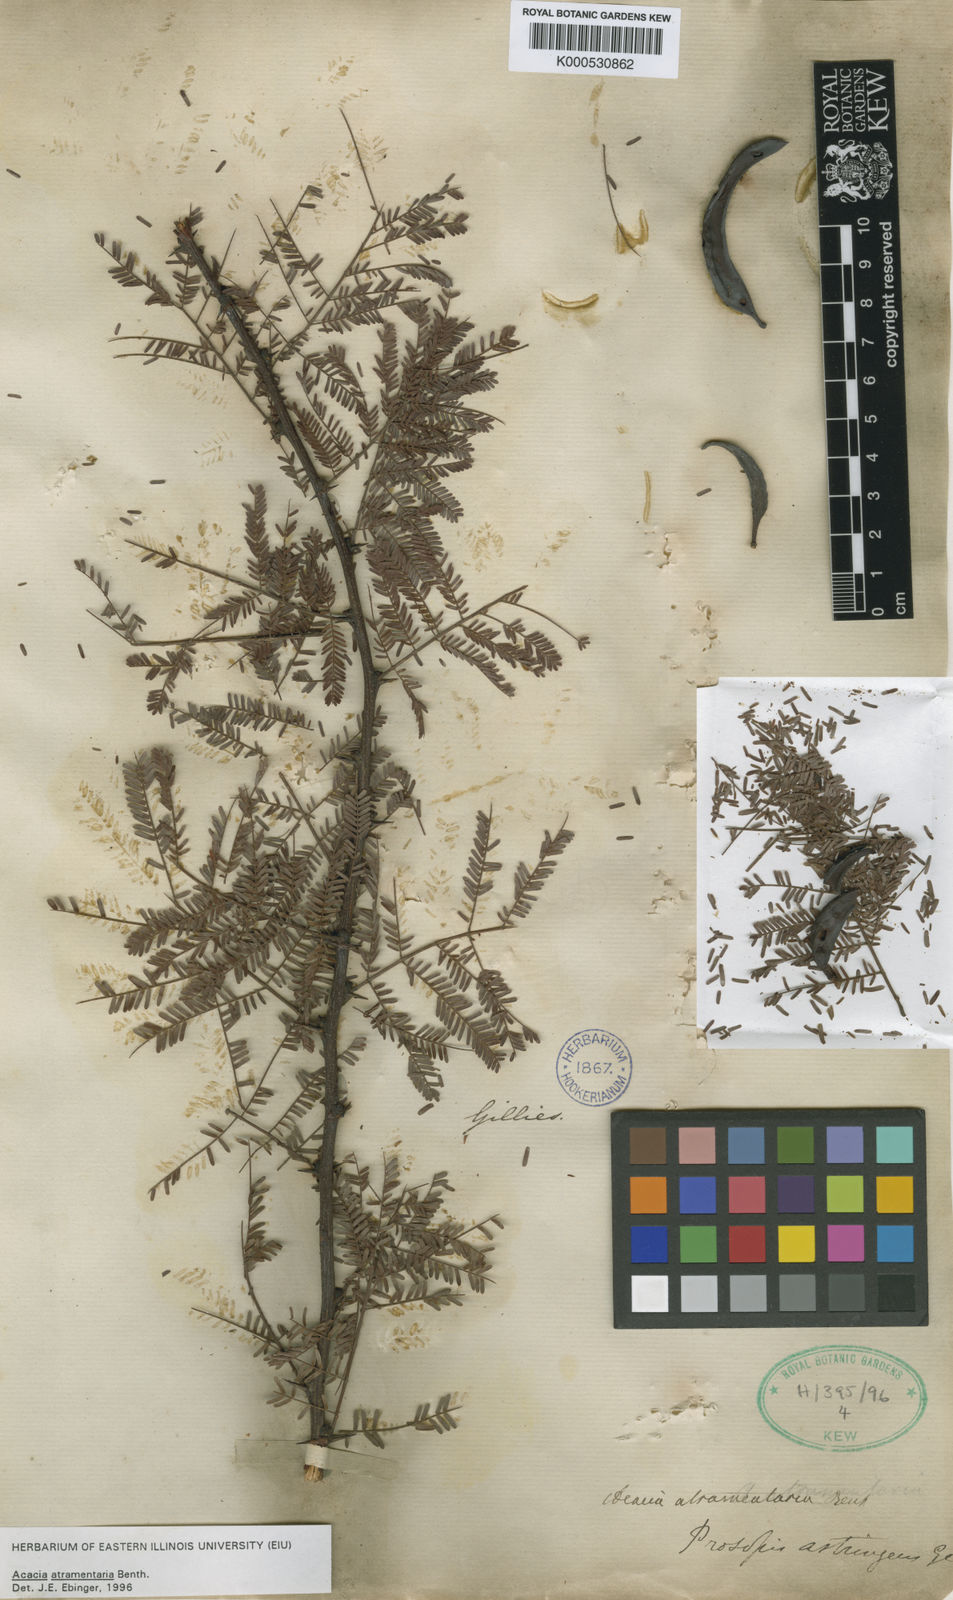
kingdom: Plantae
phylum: Tracheophyta
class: Magnoliopsida
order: Fabales
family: Fabaceae
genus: Vachellia
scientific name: Vachellia astringens
